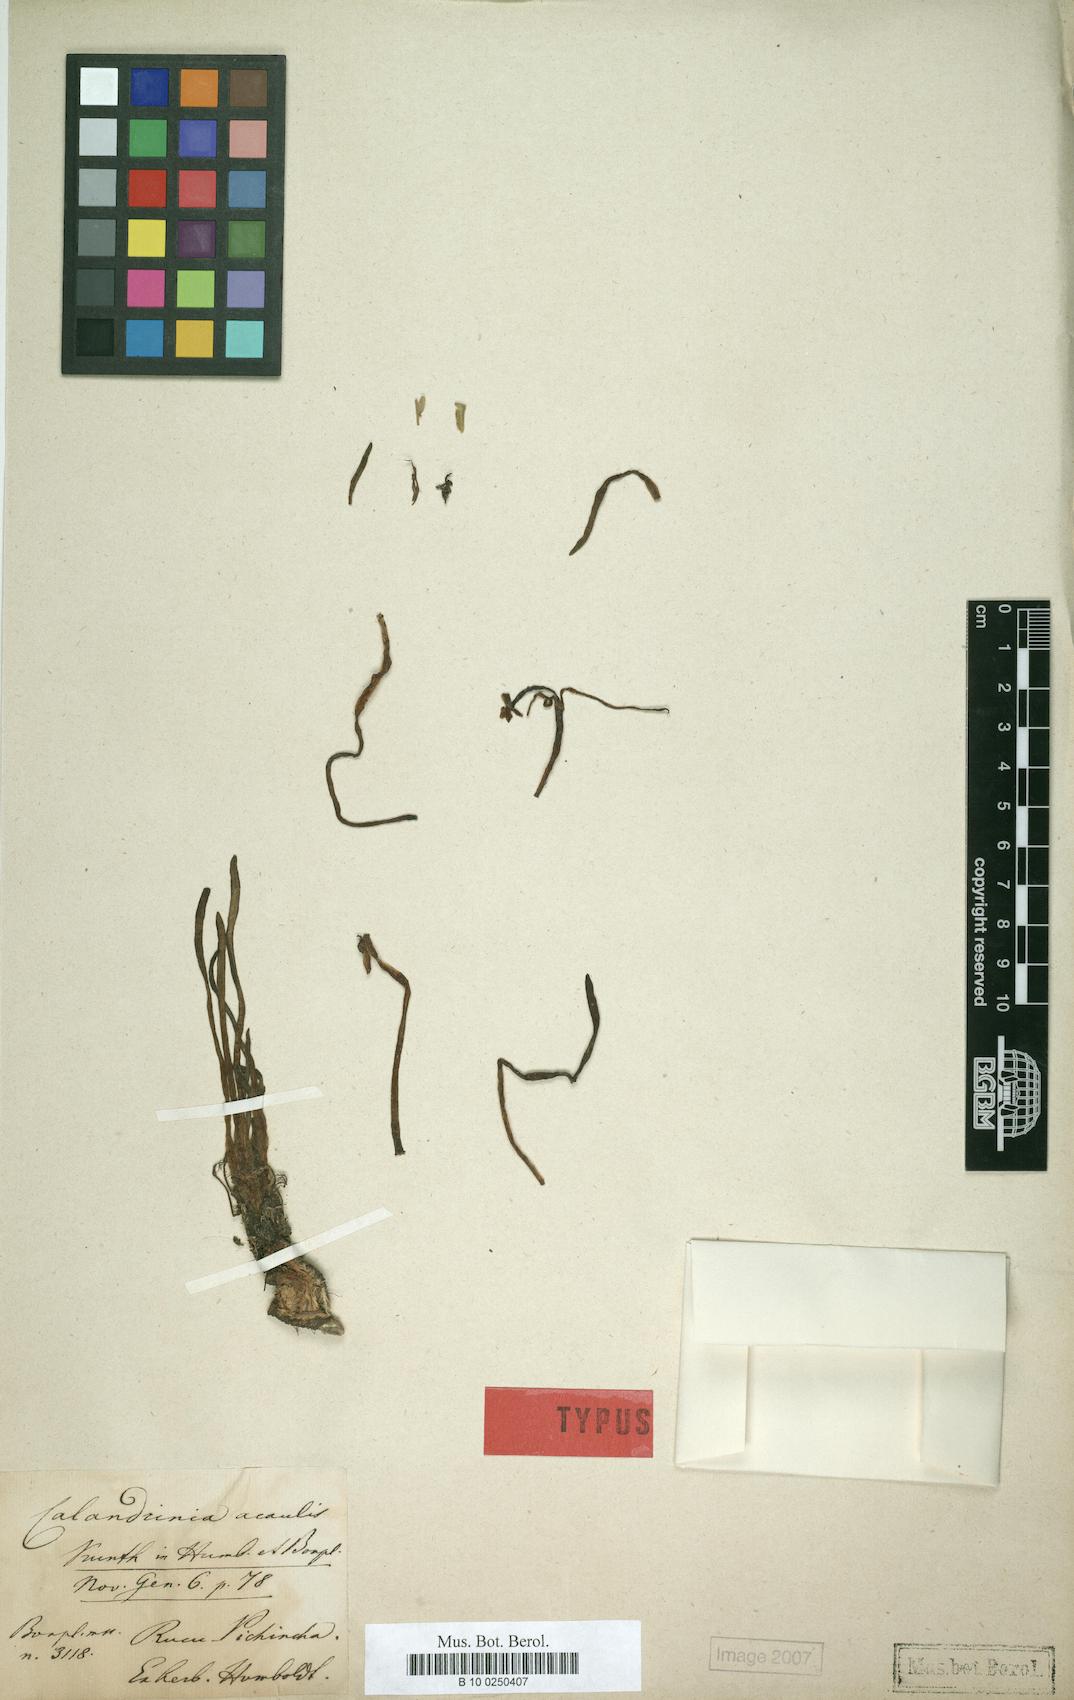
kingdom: Plantae
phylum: Tracheophyta
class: Magnoliopsida
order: Caryophyllales
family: Montiaceae
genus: Calandrinia
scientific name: Calandrinia acaulis
